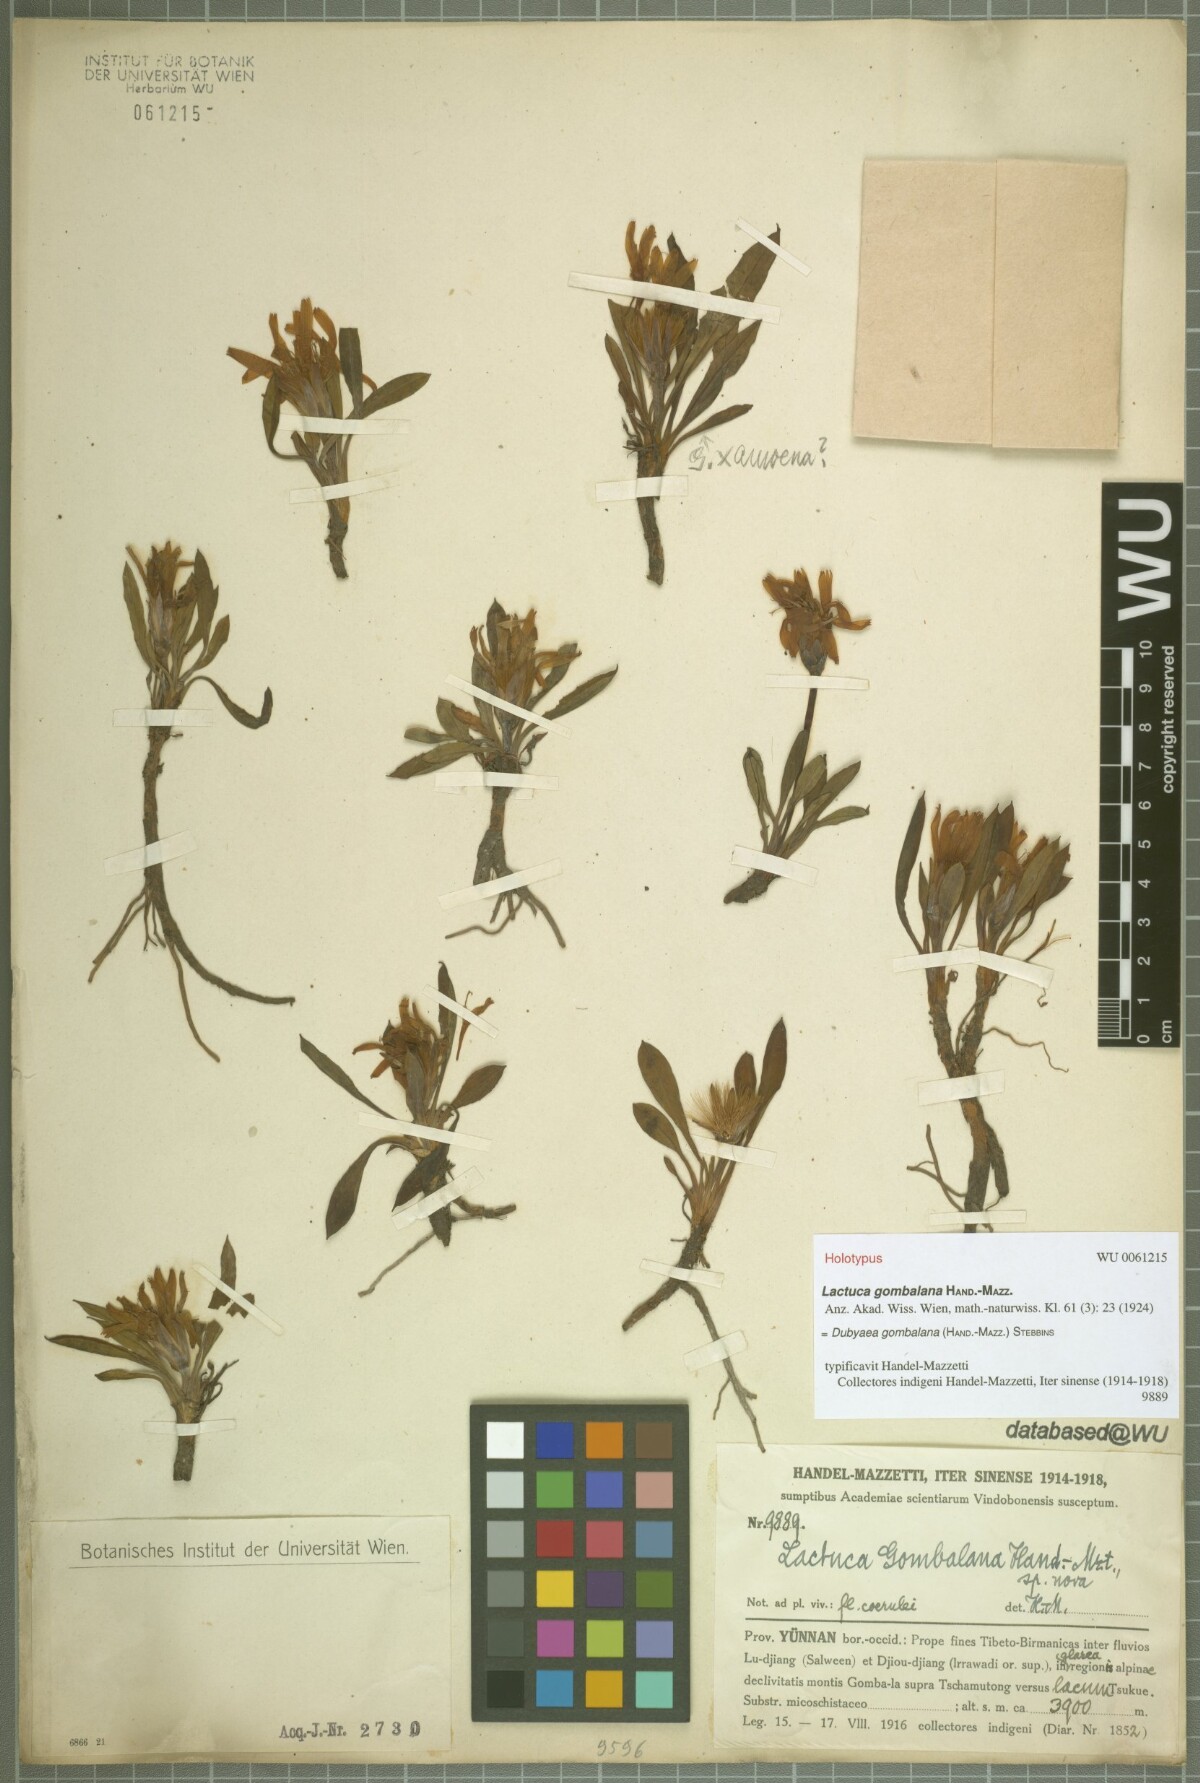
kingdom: Plantae
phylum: Tracheophyta
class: Magnoliopsida
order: Asterales
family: Asteraceae
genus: Lihengia
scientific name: Lihengia gombalana
